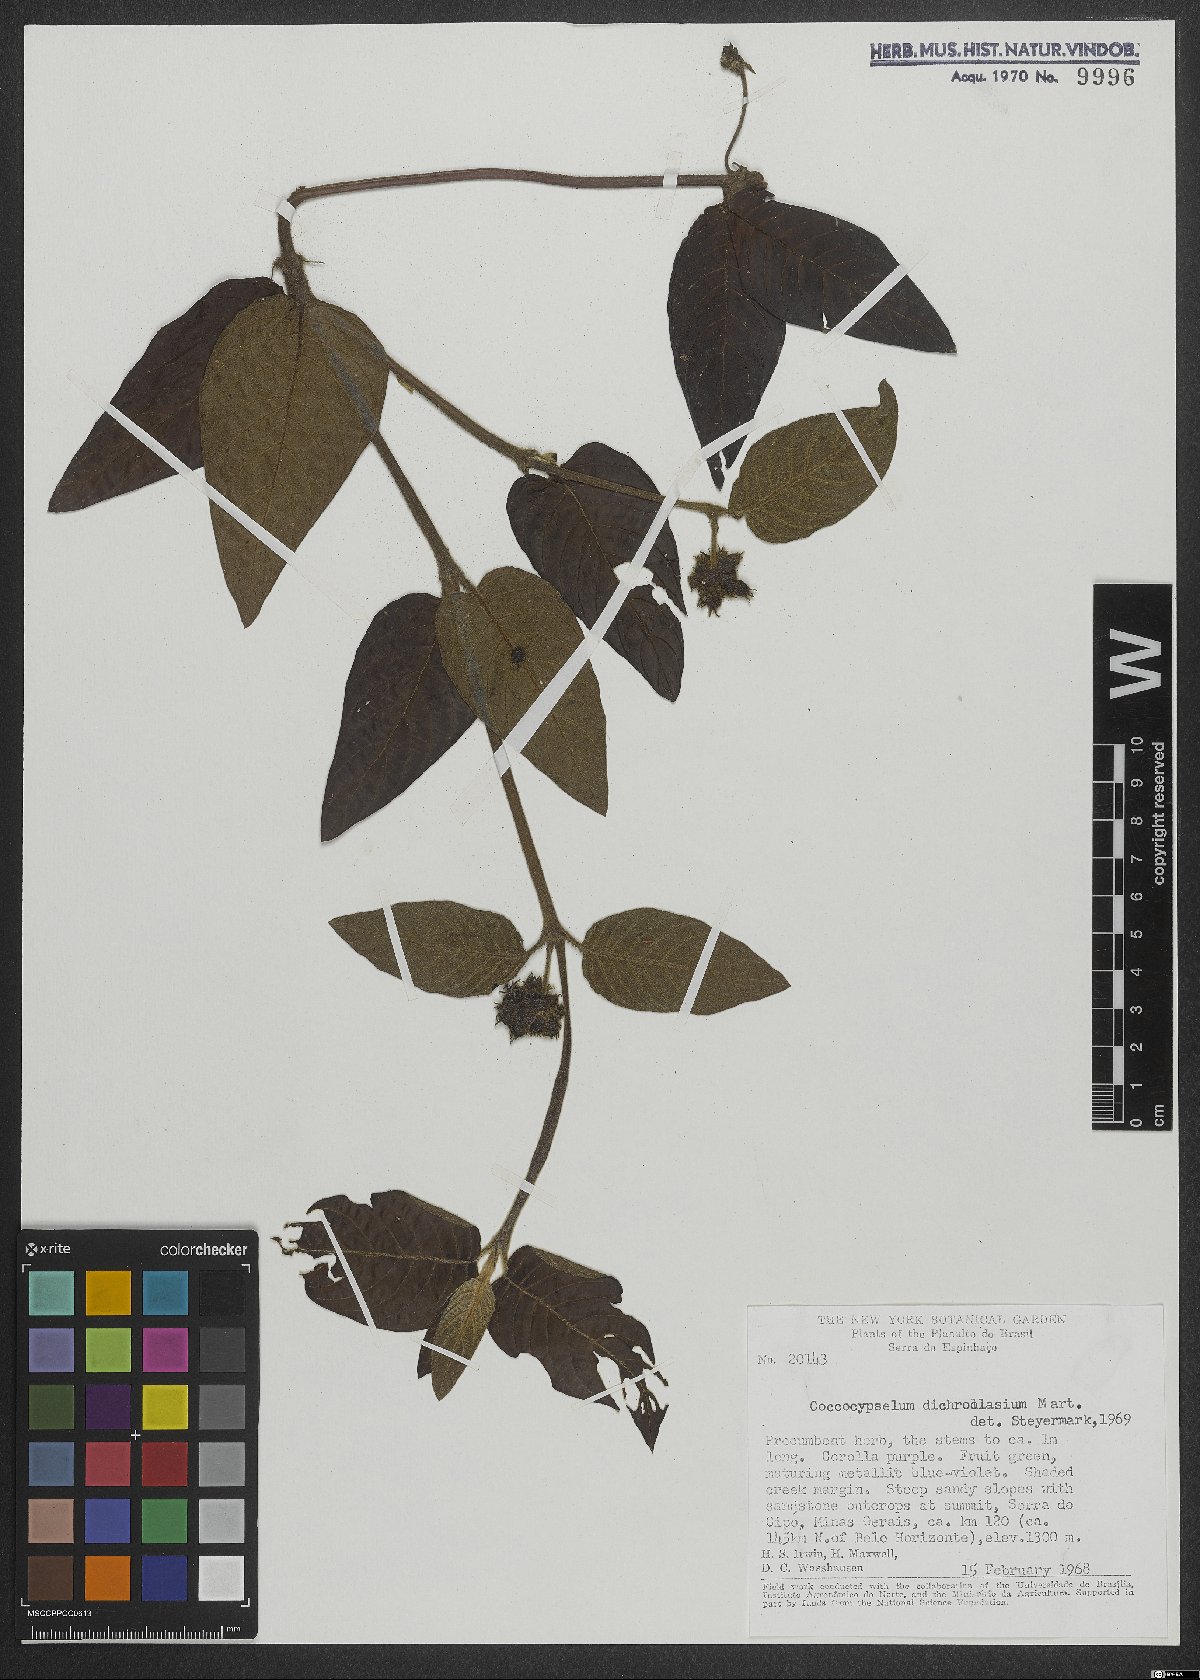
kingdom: Plantae
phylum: Tracheophyta
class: Magnoliopsida
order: Gentianales
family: Rubiaceae
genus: Coccocypselum
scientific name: Coccocypselum lanceolatum
